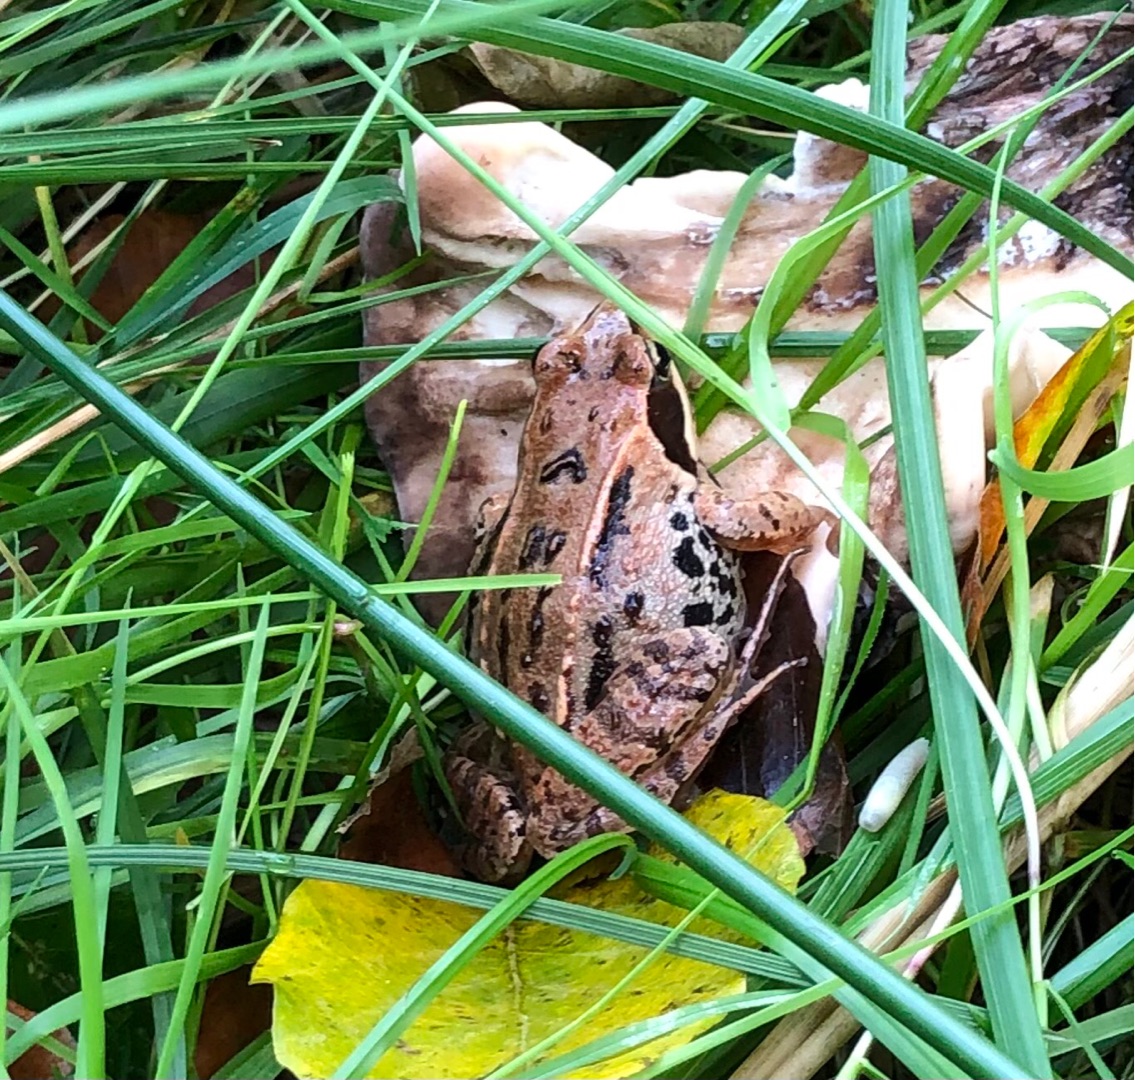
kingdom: Animalia
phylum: Chordata
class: Amphibia
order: Anura
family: Ranidae
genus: Rana
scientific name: Rana arvalis
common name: Spidssnudet frø
